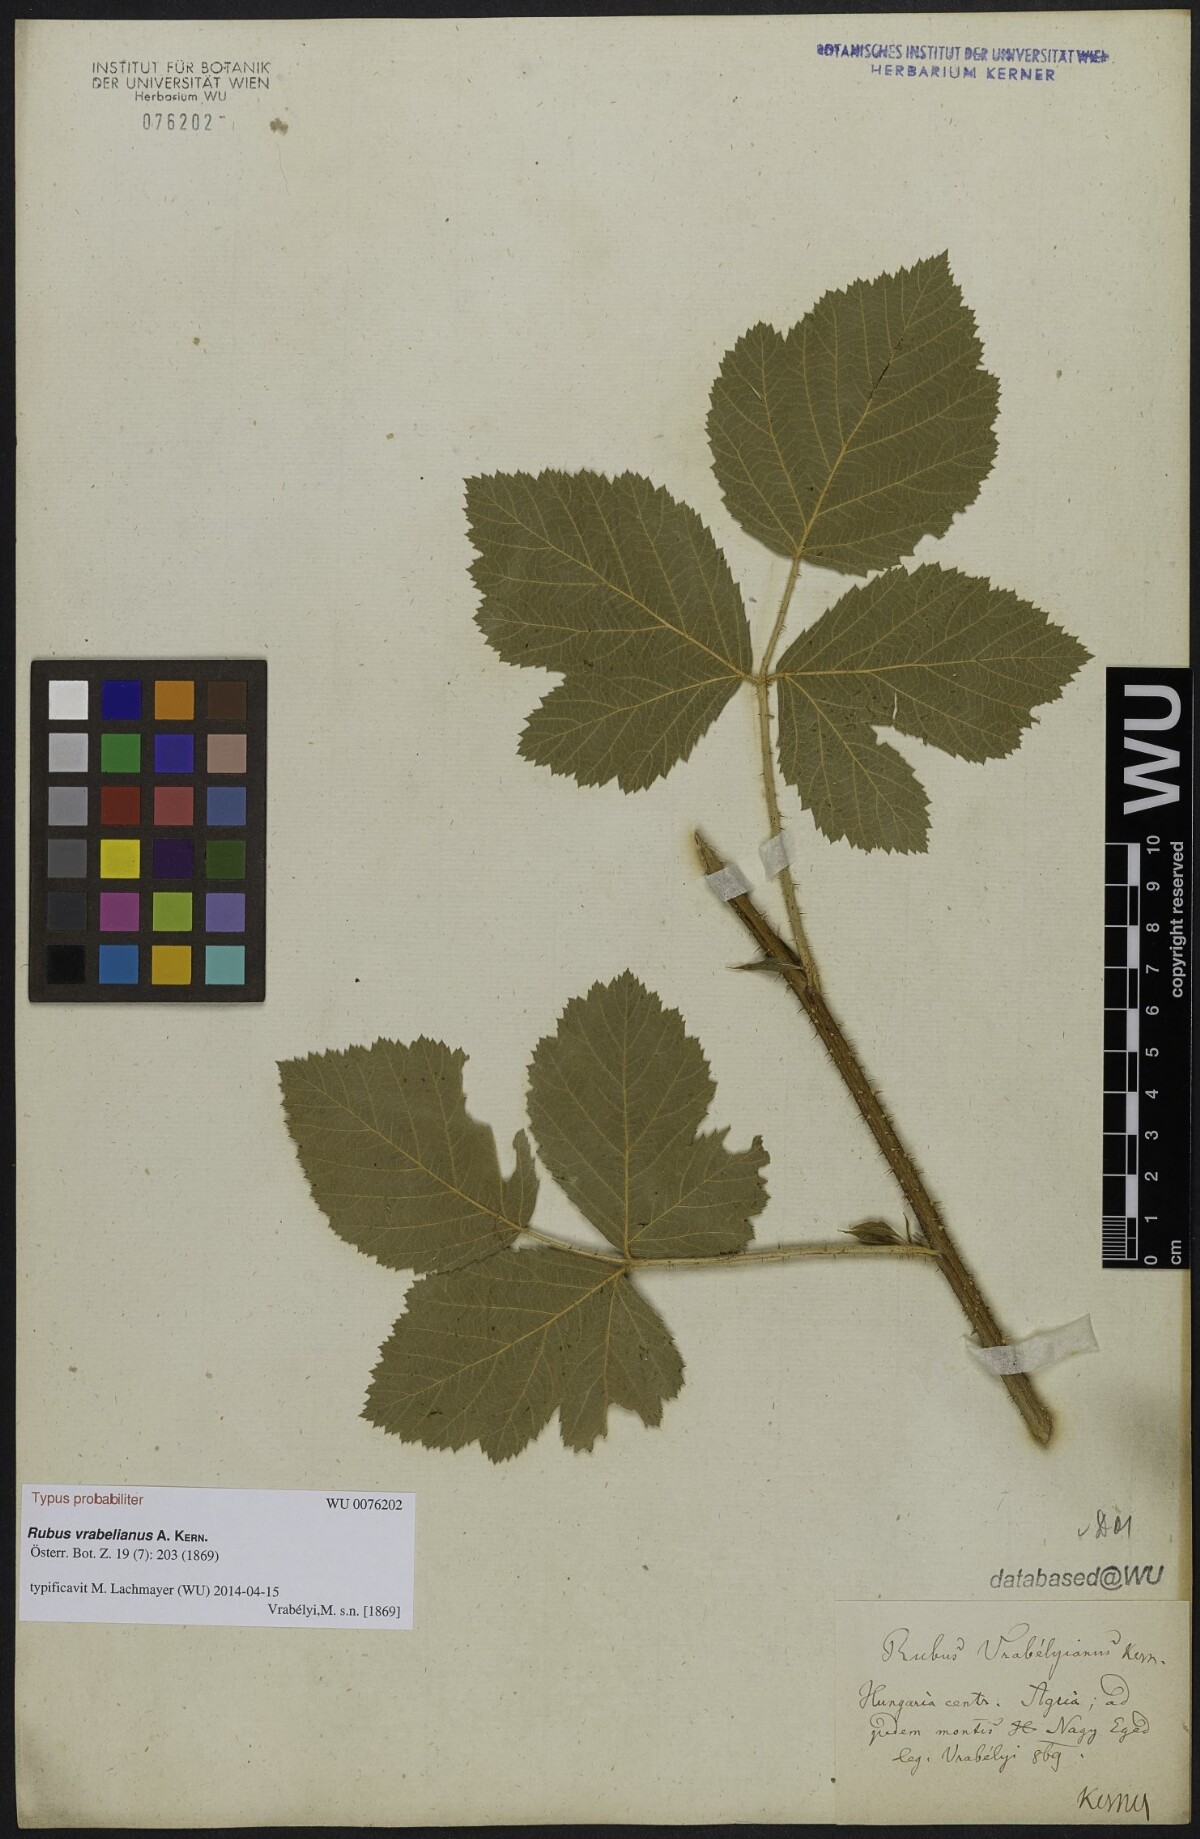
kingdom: Plantae
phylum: Tracheophyta
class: Magnoliopsida
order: Rosales
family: Rosaceae
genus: Rubus
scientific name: Rubus vrabelianus
